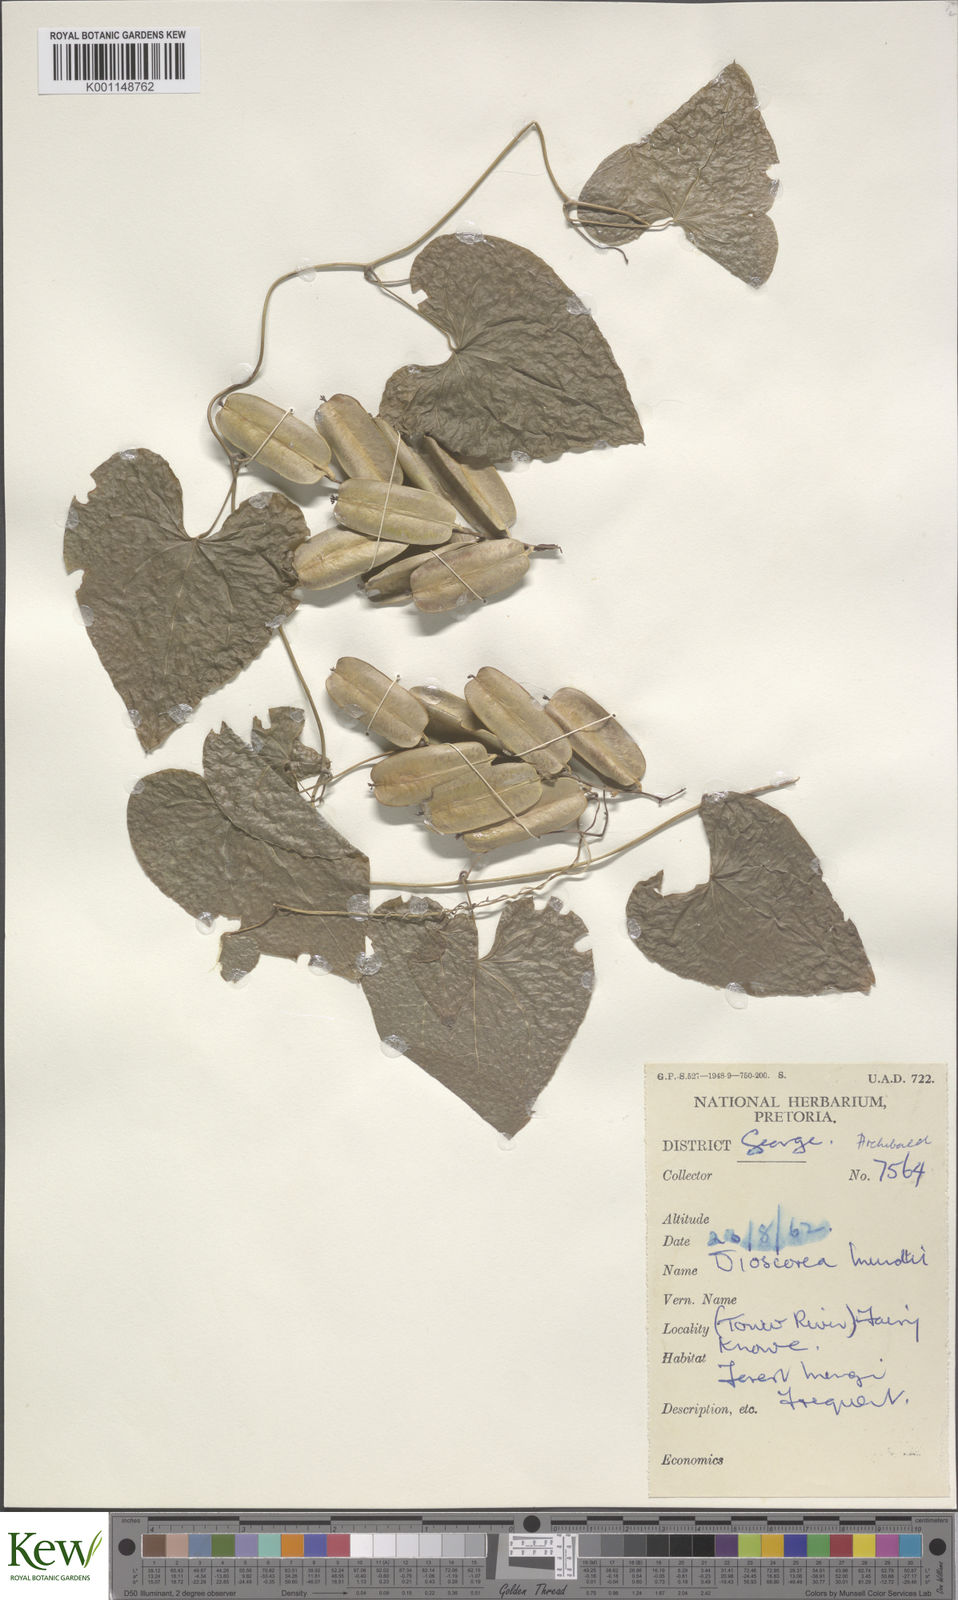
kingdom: Plantae
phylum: Tracheophyta
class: Liliopsida
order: Dioscoreales
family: Dioscoreaceae
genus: Dioscorea
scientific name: Dioscorea mundii
